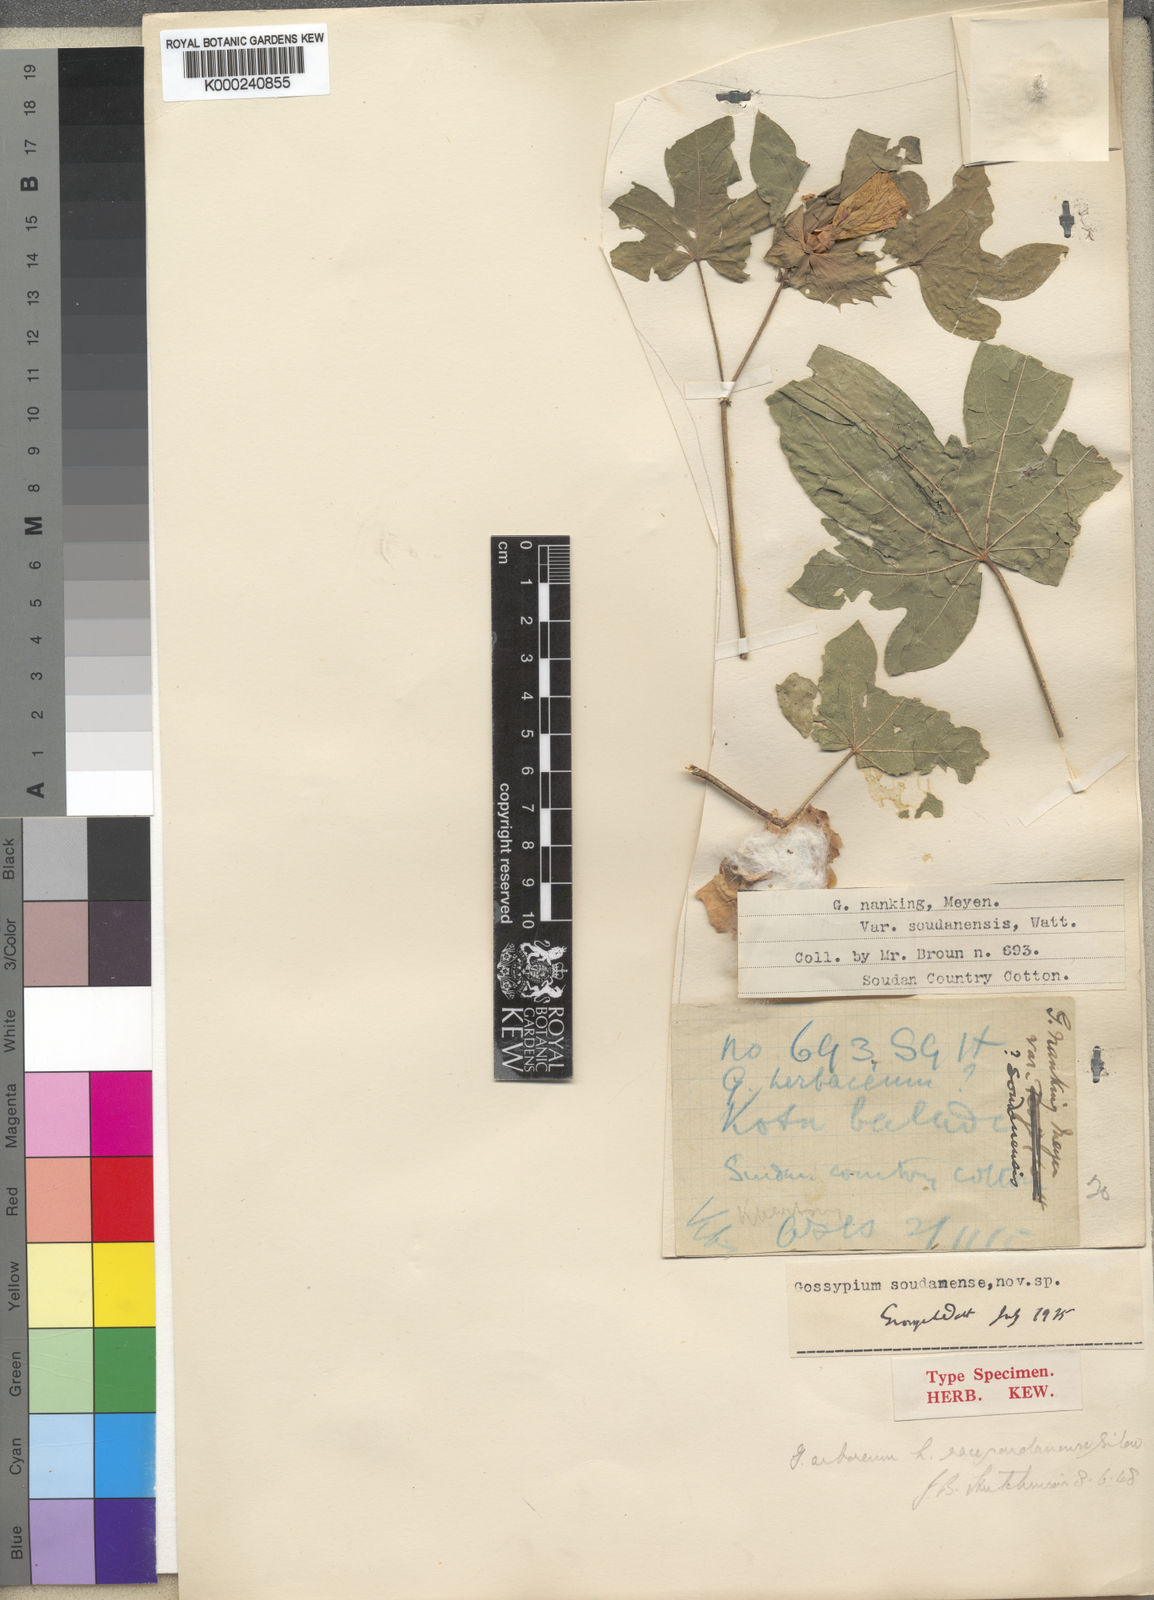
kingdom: Plantae
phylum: Tracheophyta
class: Magnoliopsida
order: Malvales
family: Malvaceae
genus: Gossypium
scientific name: Gossypium arboreum
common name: Tree cotton
